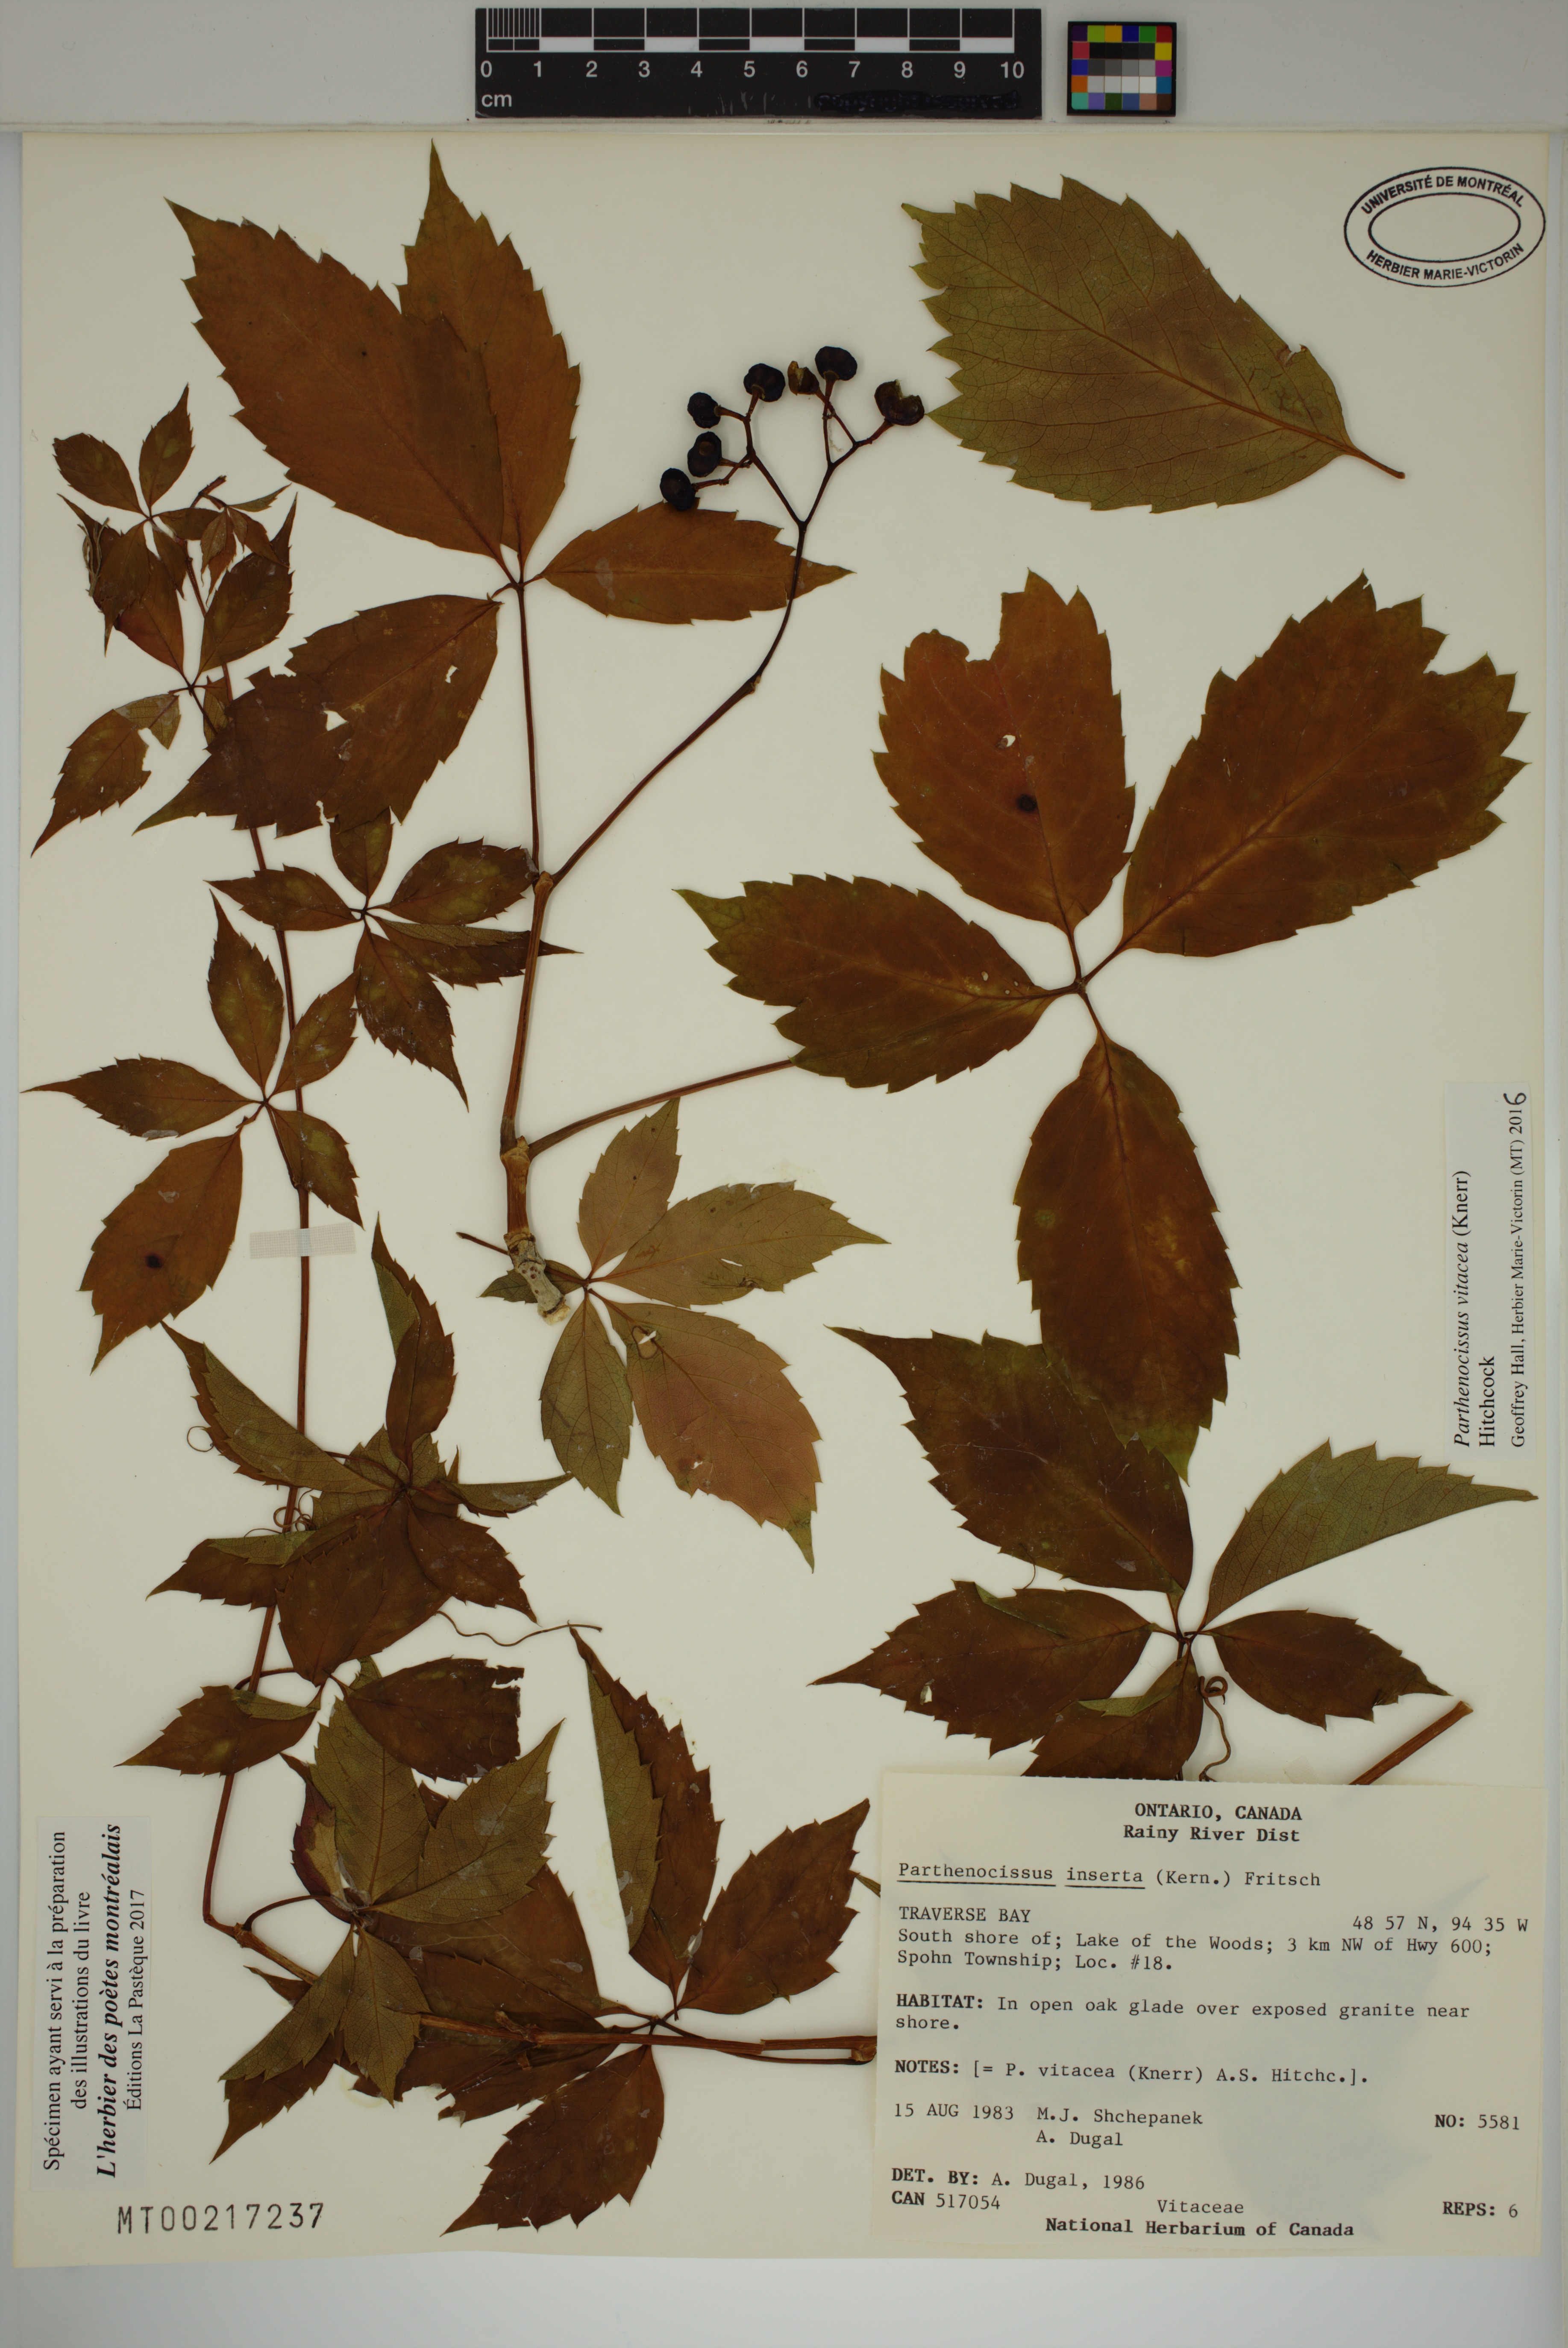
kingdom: Plantae
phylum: Tracheophyta
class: Magnoliopsida
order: Vitales
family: Vitaceae
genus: Parthenocissus
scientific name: Parthenocissus inserta
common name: False virginia-creeper
